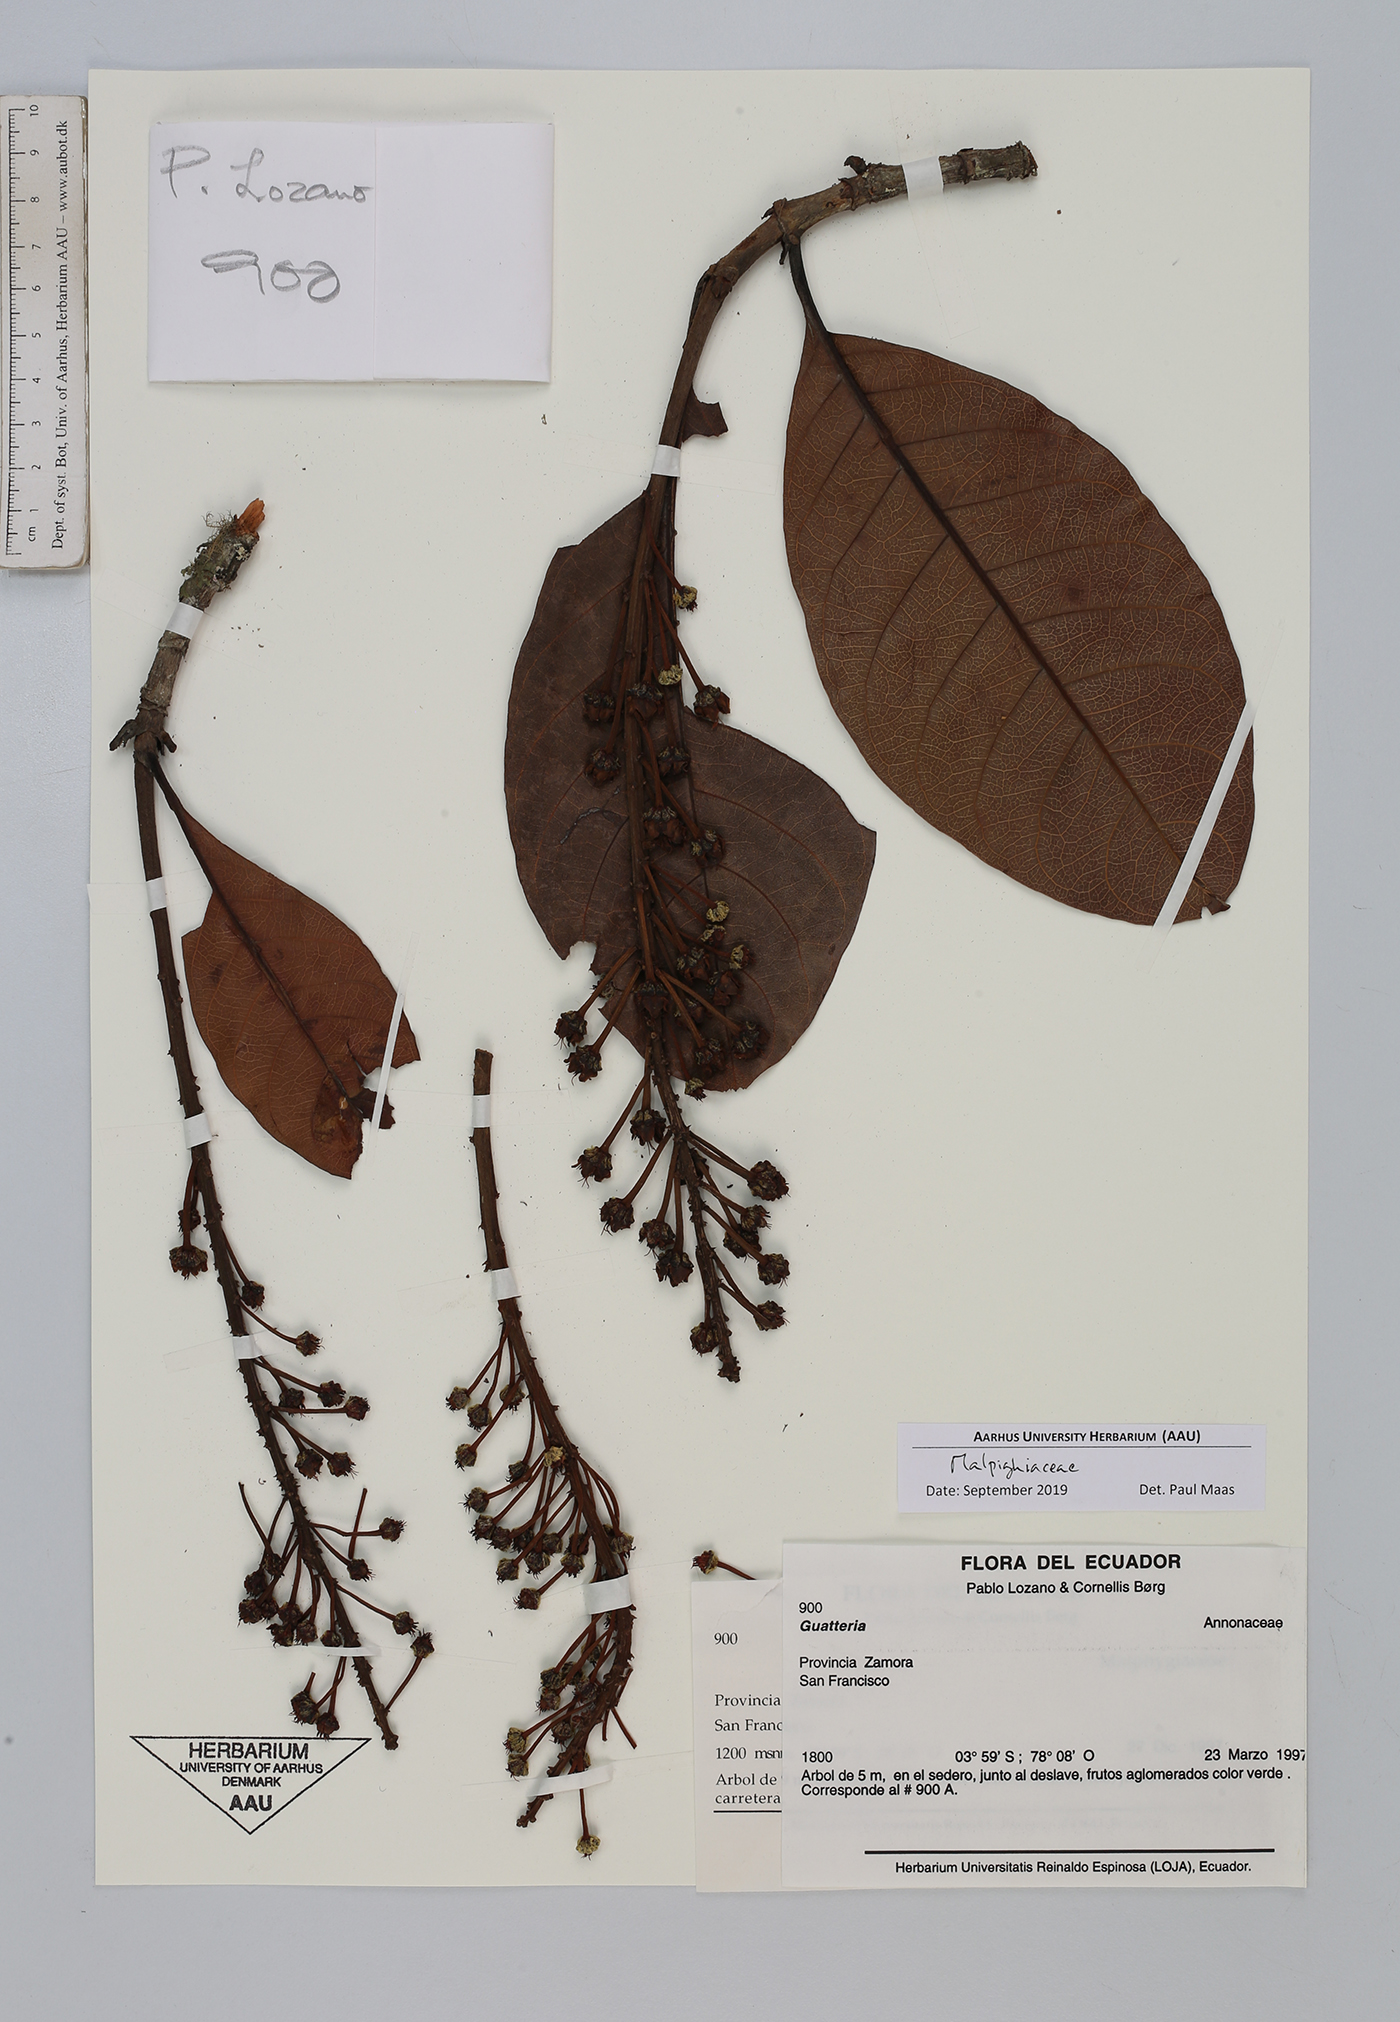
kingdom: Plantae
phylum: Tracheophyta
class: Magnoliopsida
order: Malpighiales
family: Malpighiaceae
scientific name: Malpighiaceae
